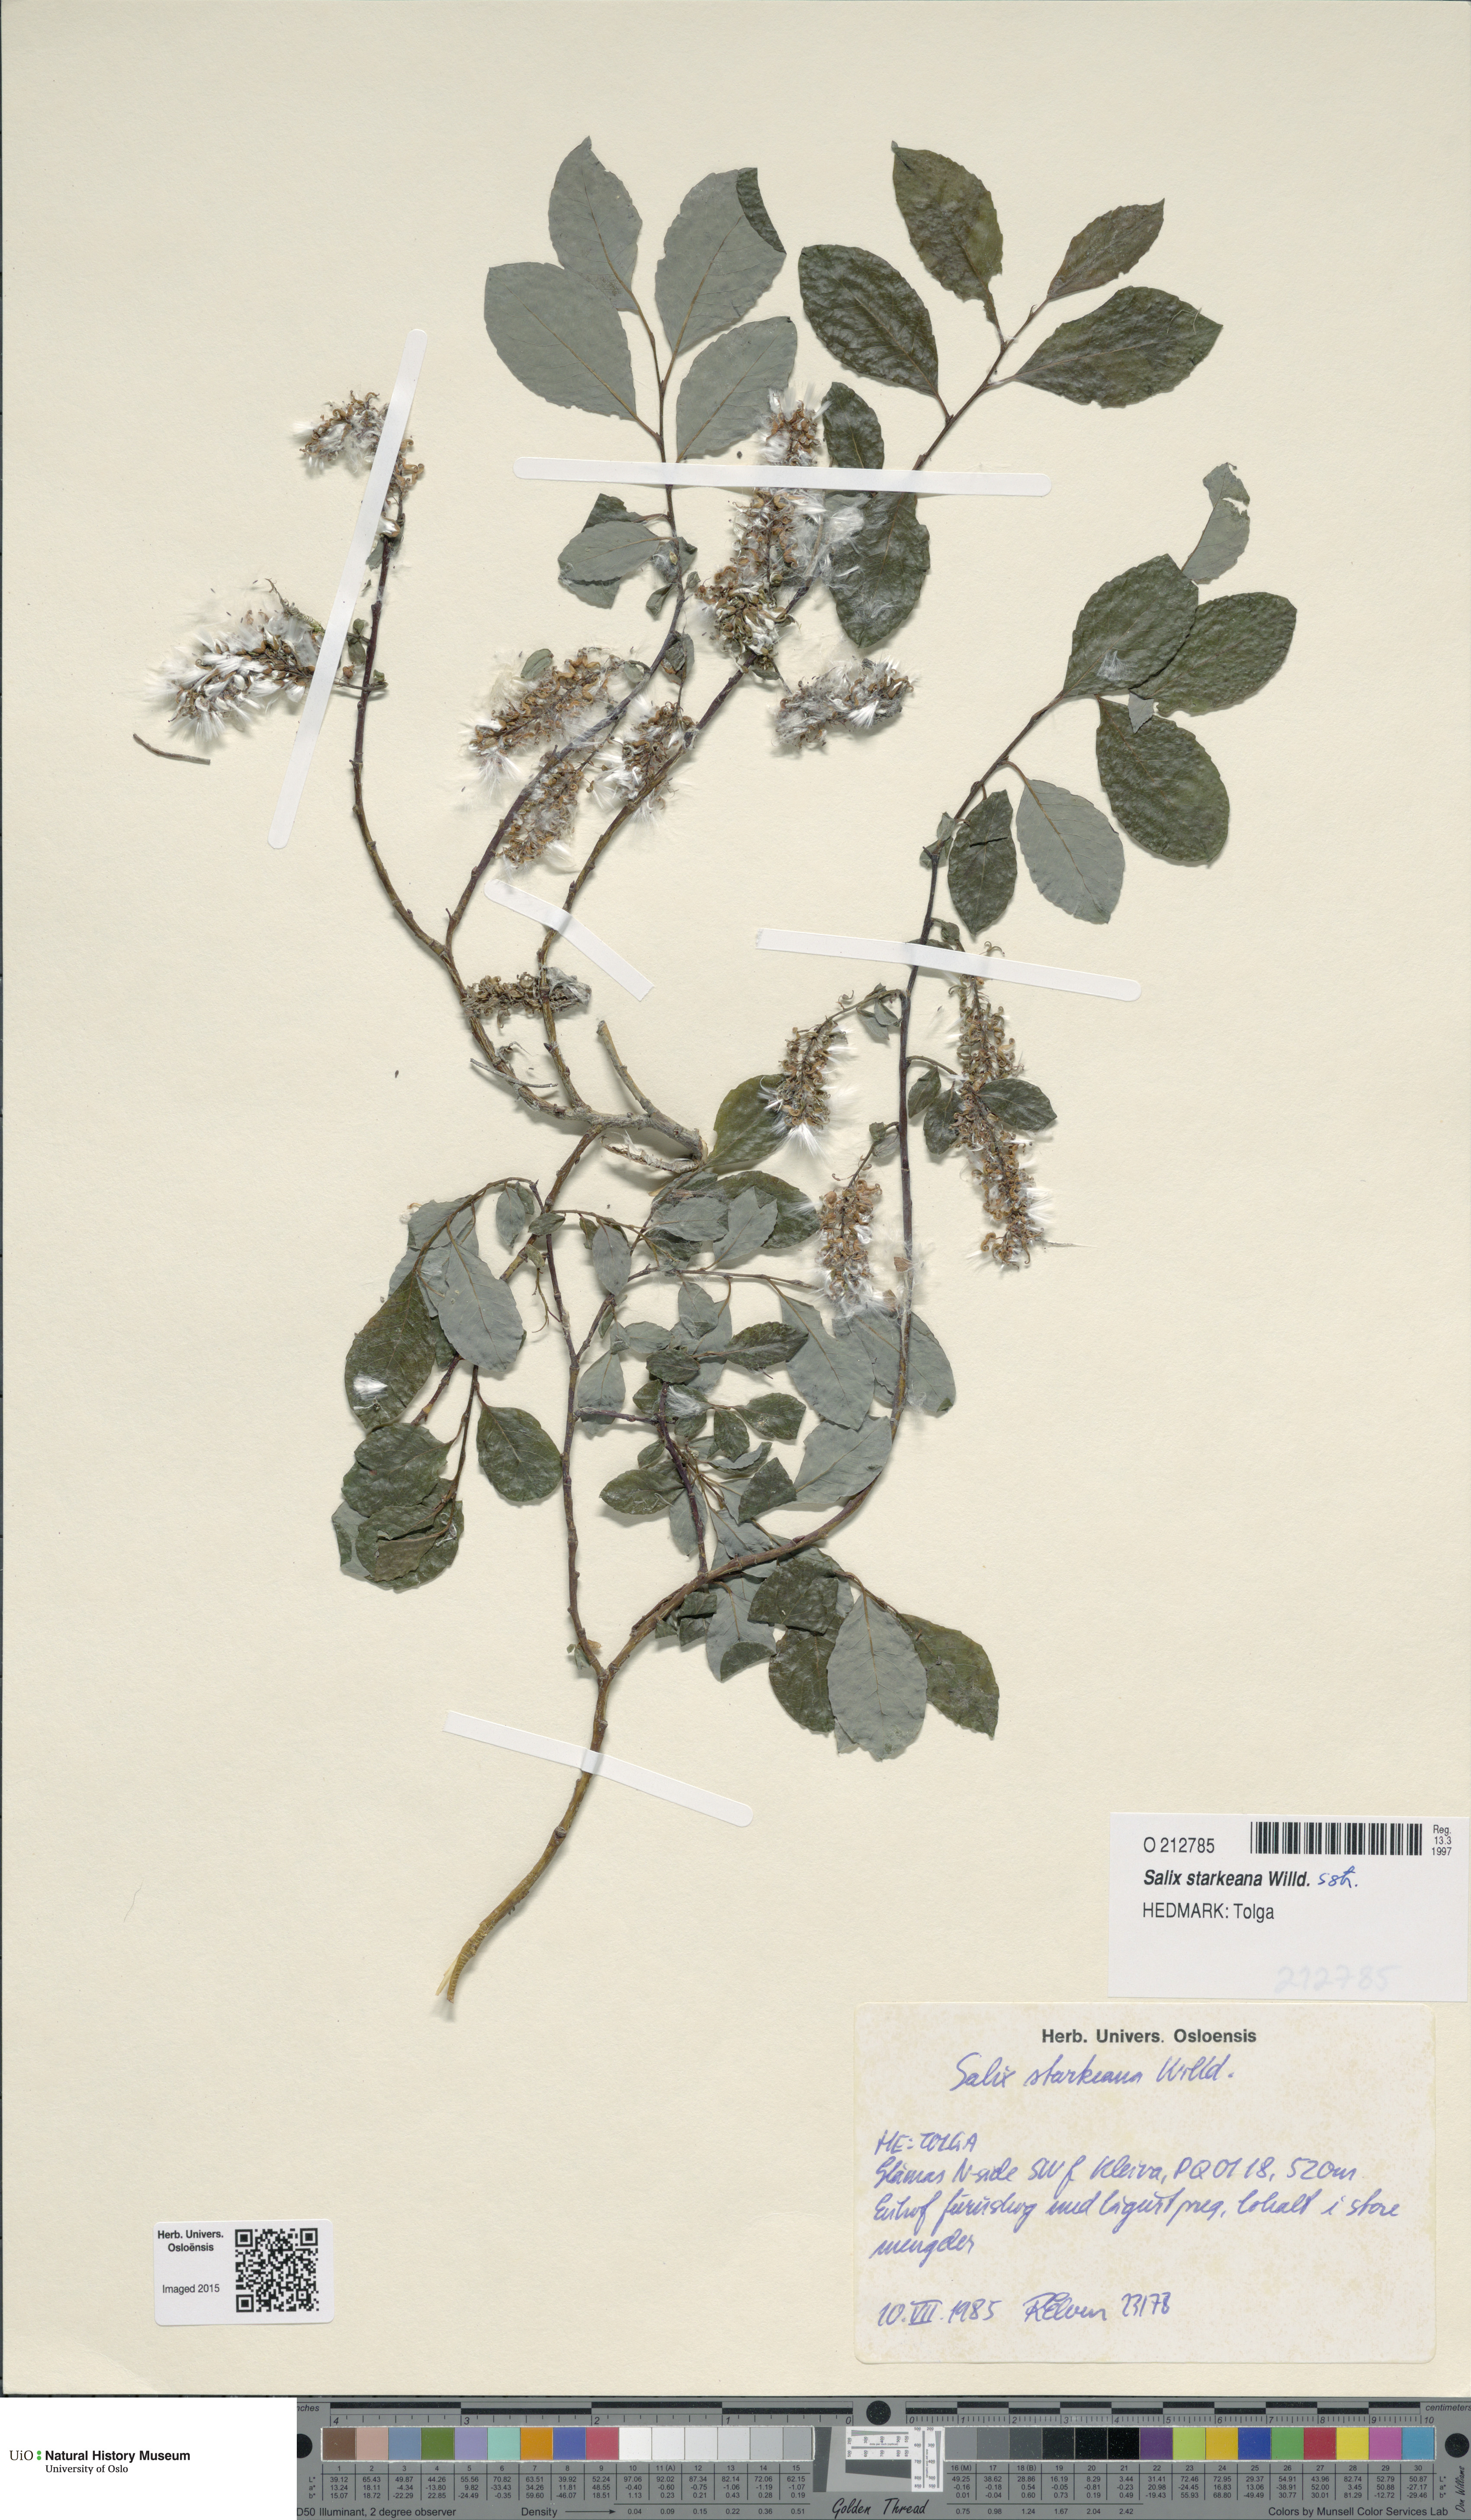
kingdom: Plantae
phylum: Tracheophyta
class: Magnoliopsida
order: Malpighiales
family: Salicaceae
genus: Salix
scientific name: Salix starkeana
